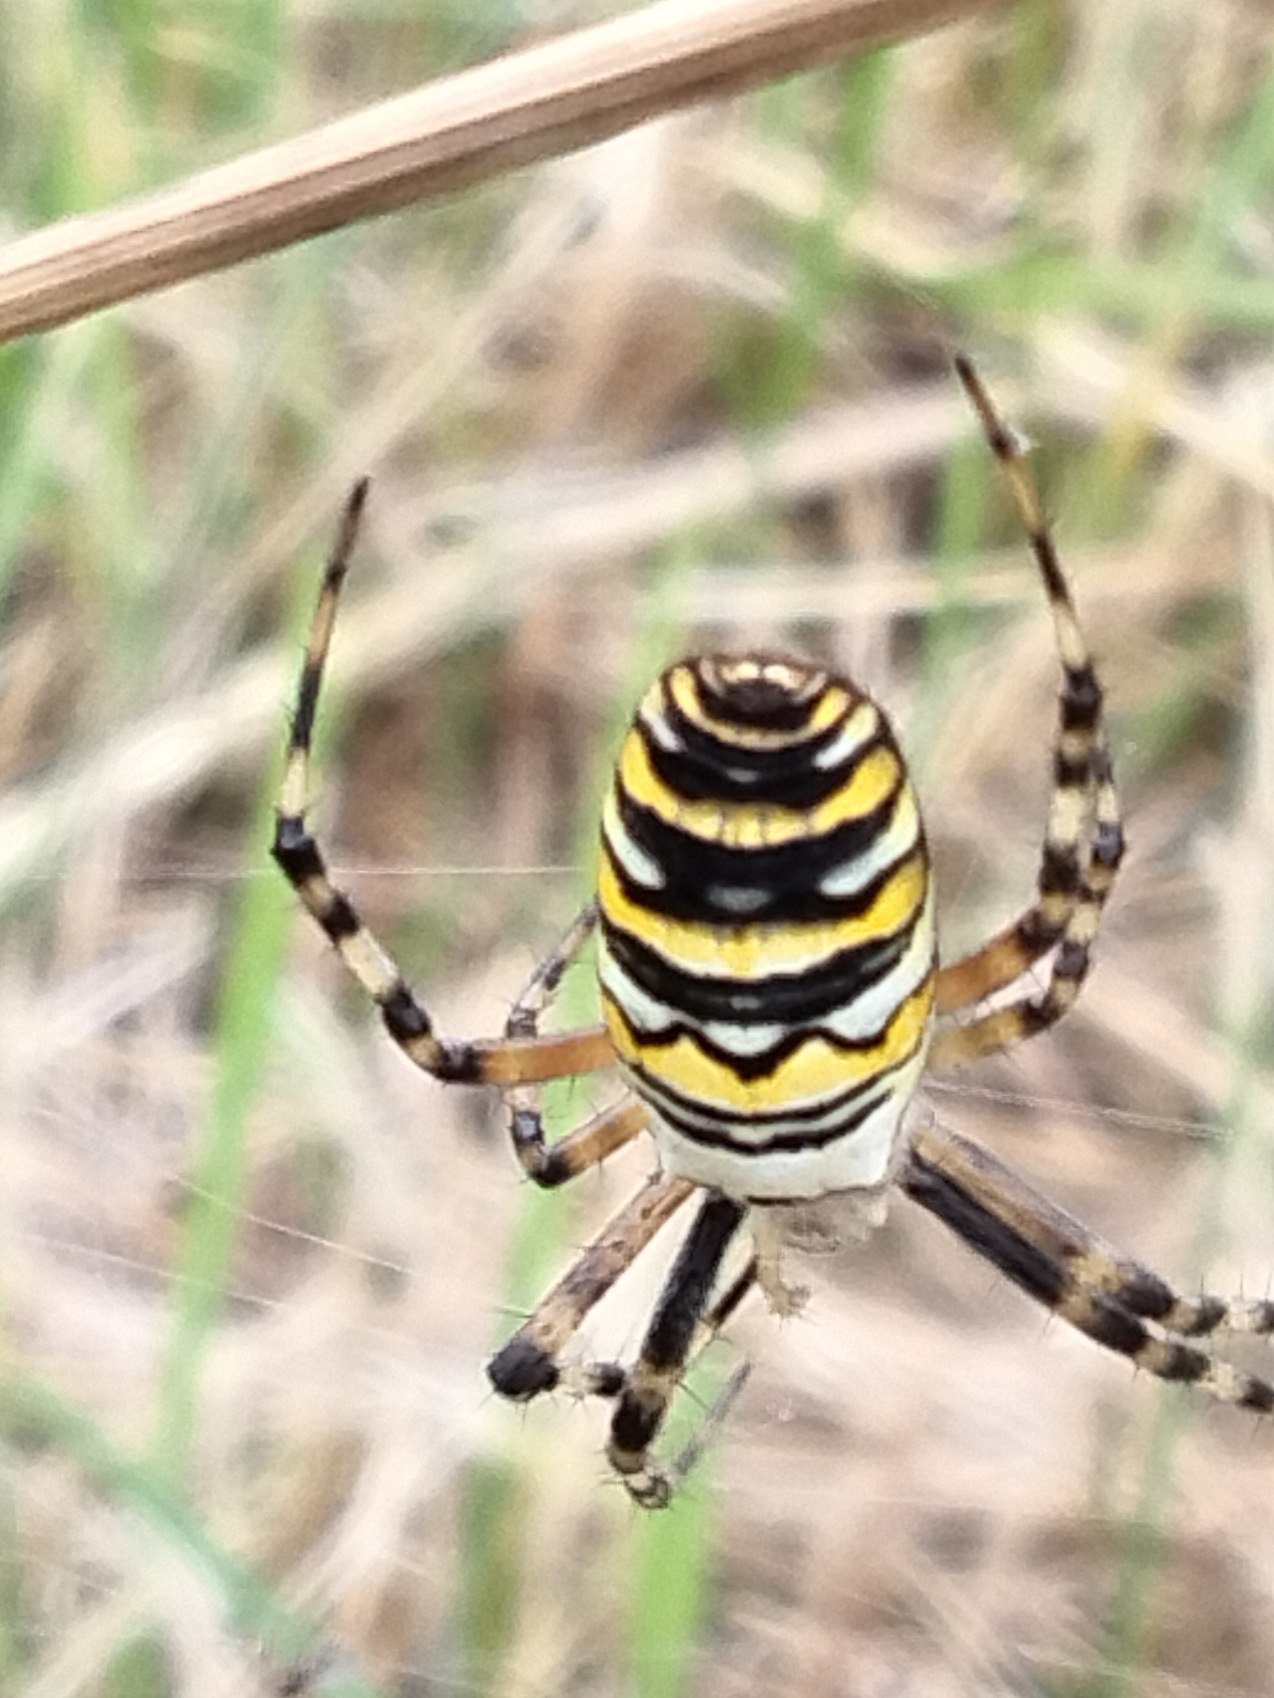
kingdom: Animalia
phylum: Arthropoda
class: Arachnida
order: Araneae
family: Araneidae
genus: Argiope
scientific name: Argiope bruennichi
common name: Hvepseedderkop
